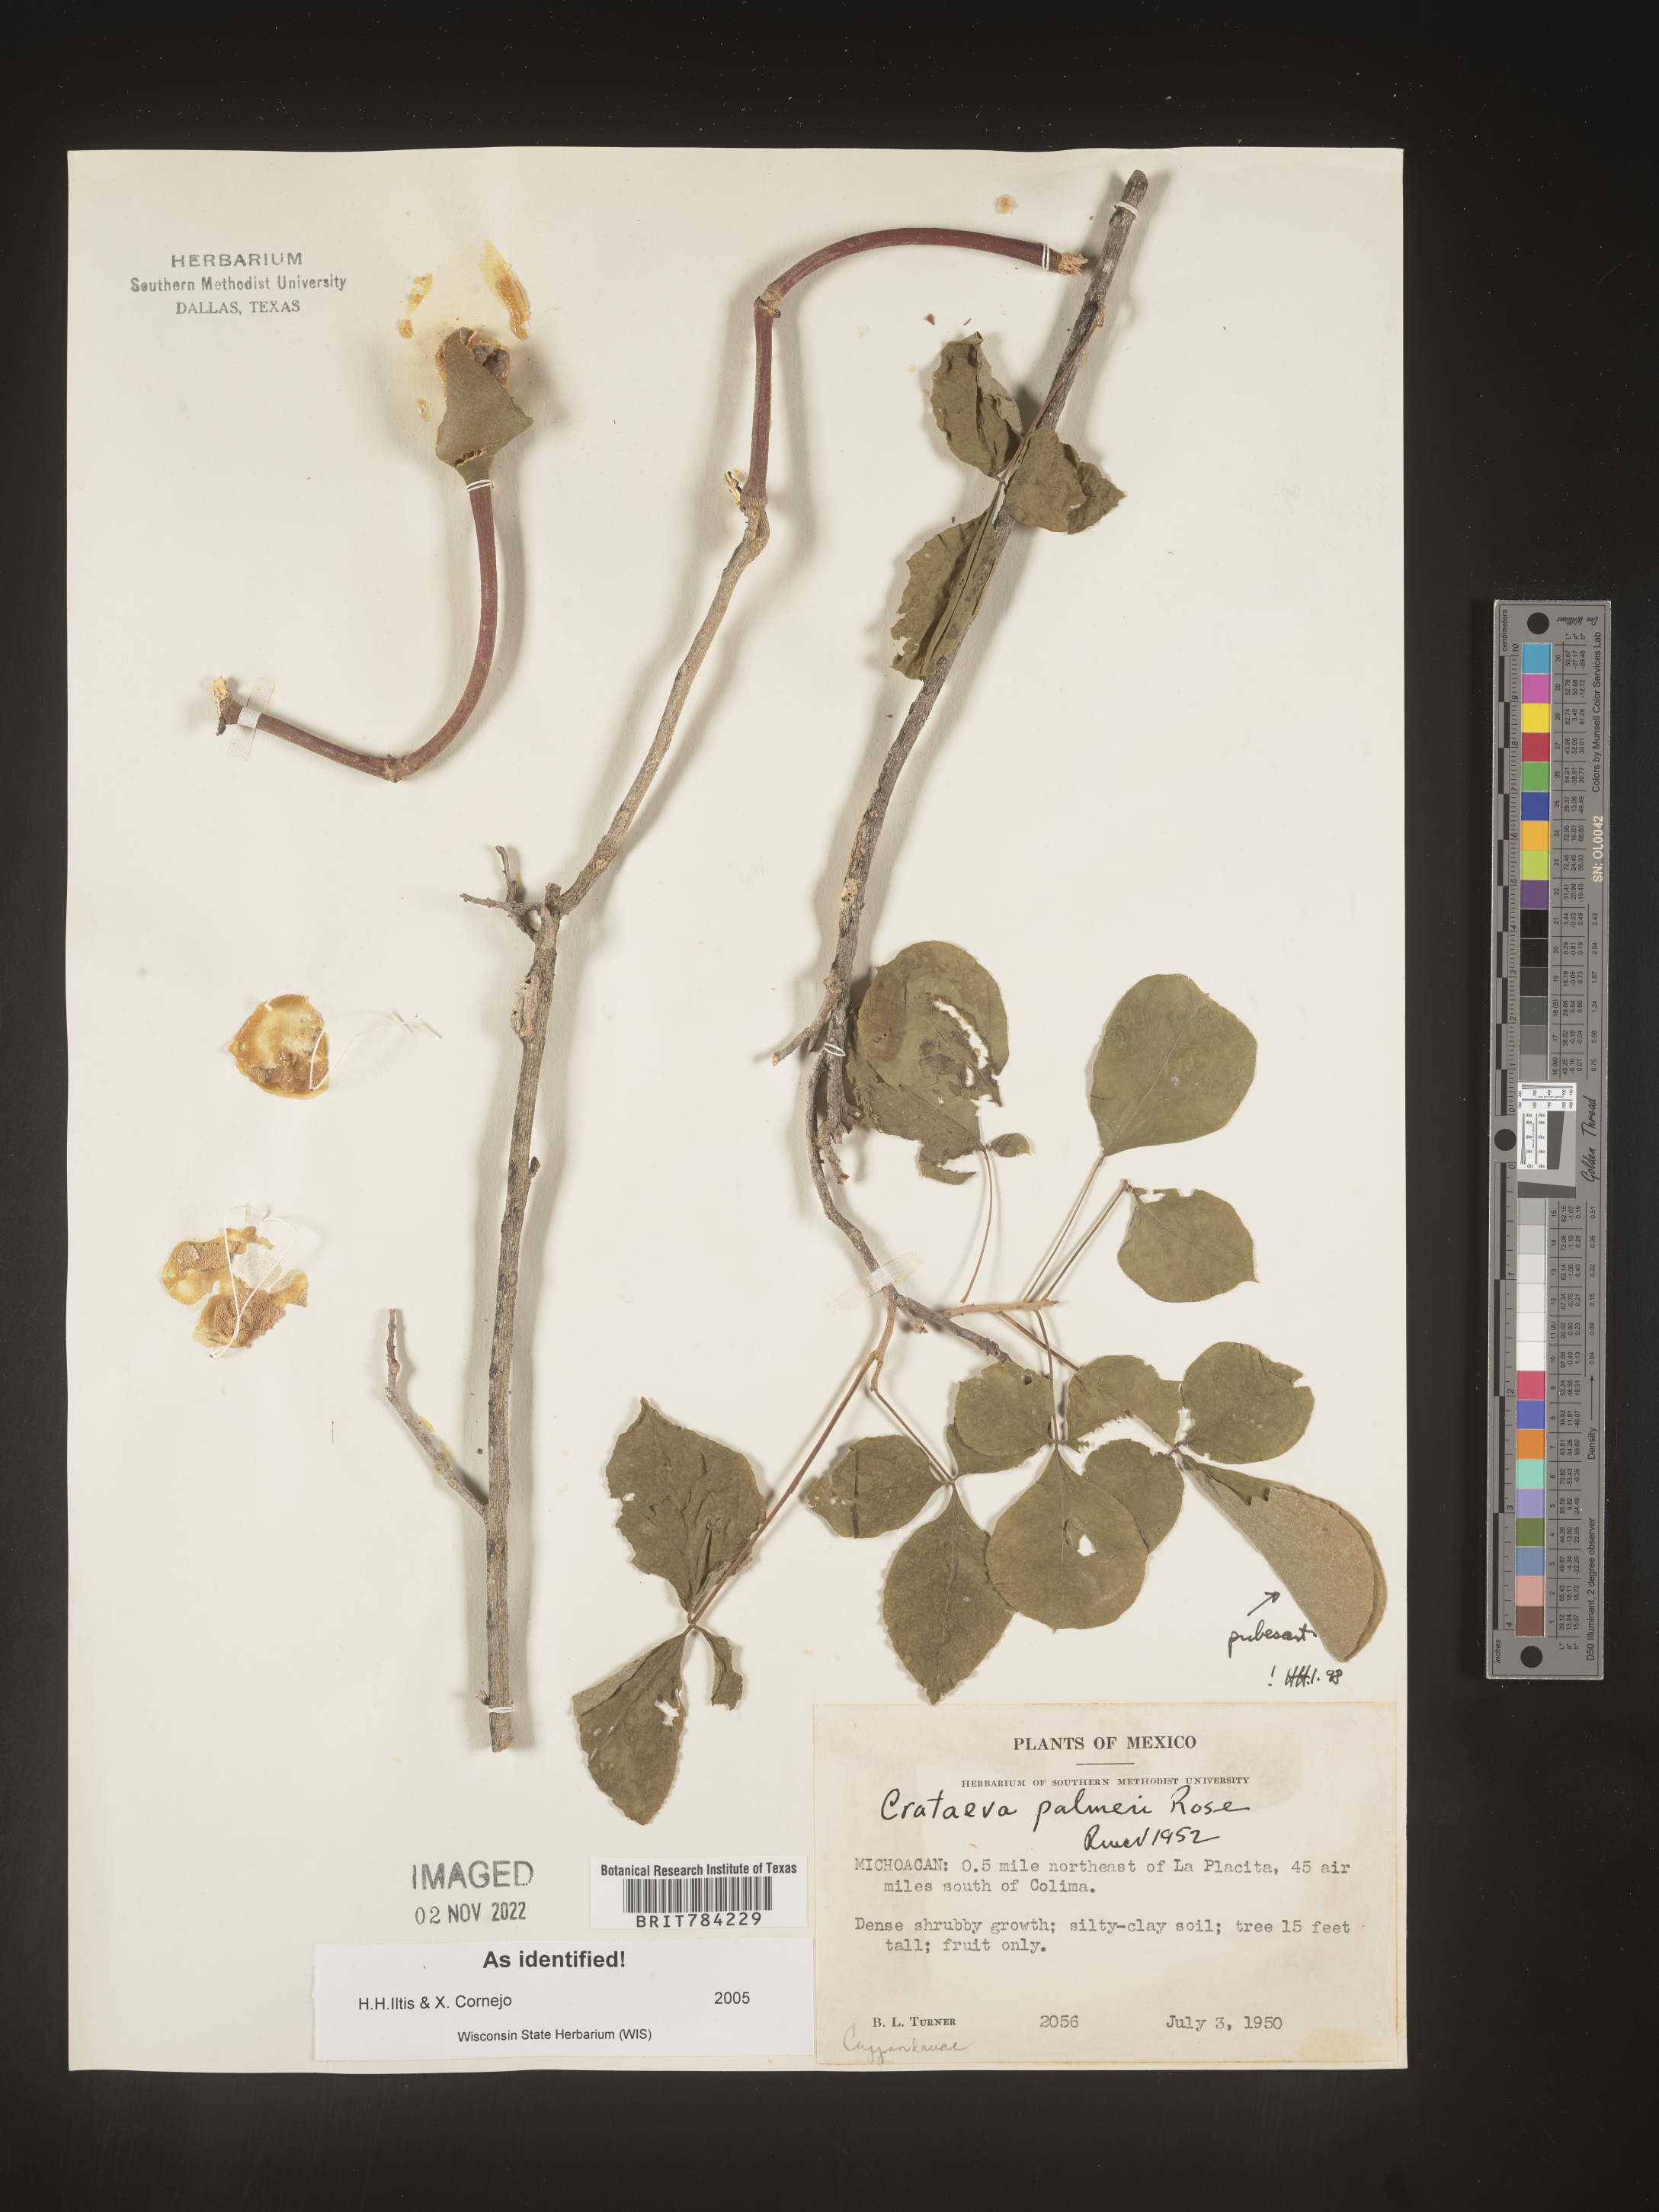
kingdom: Plantae
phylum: Tracheophyta
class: Magnoliopsida
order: Brassicales
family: Capparaceae
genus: Crateva
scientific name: Crateva
